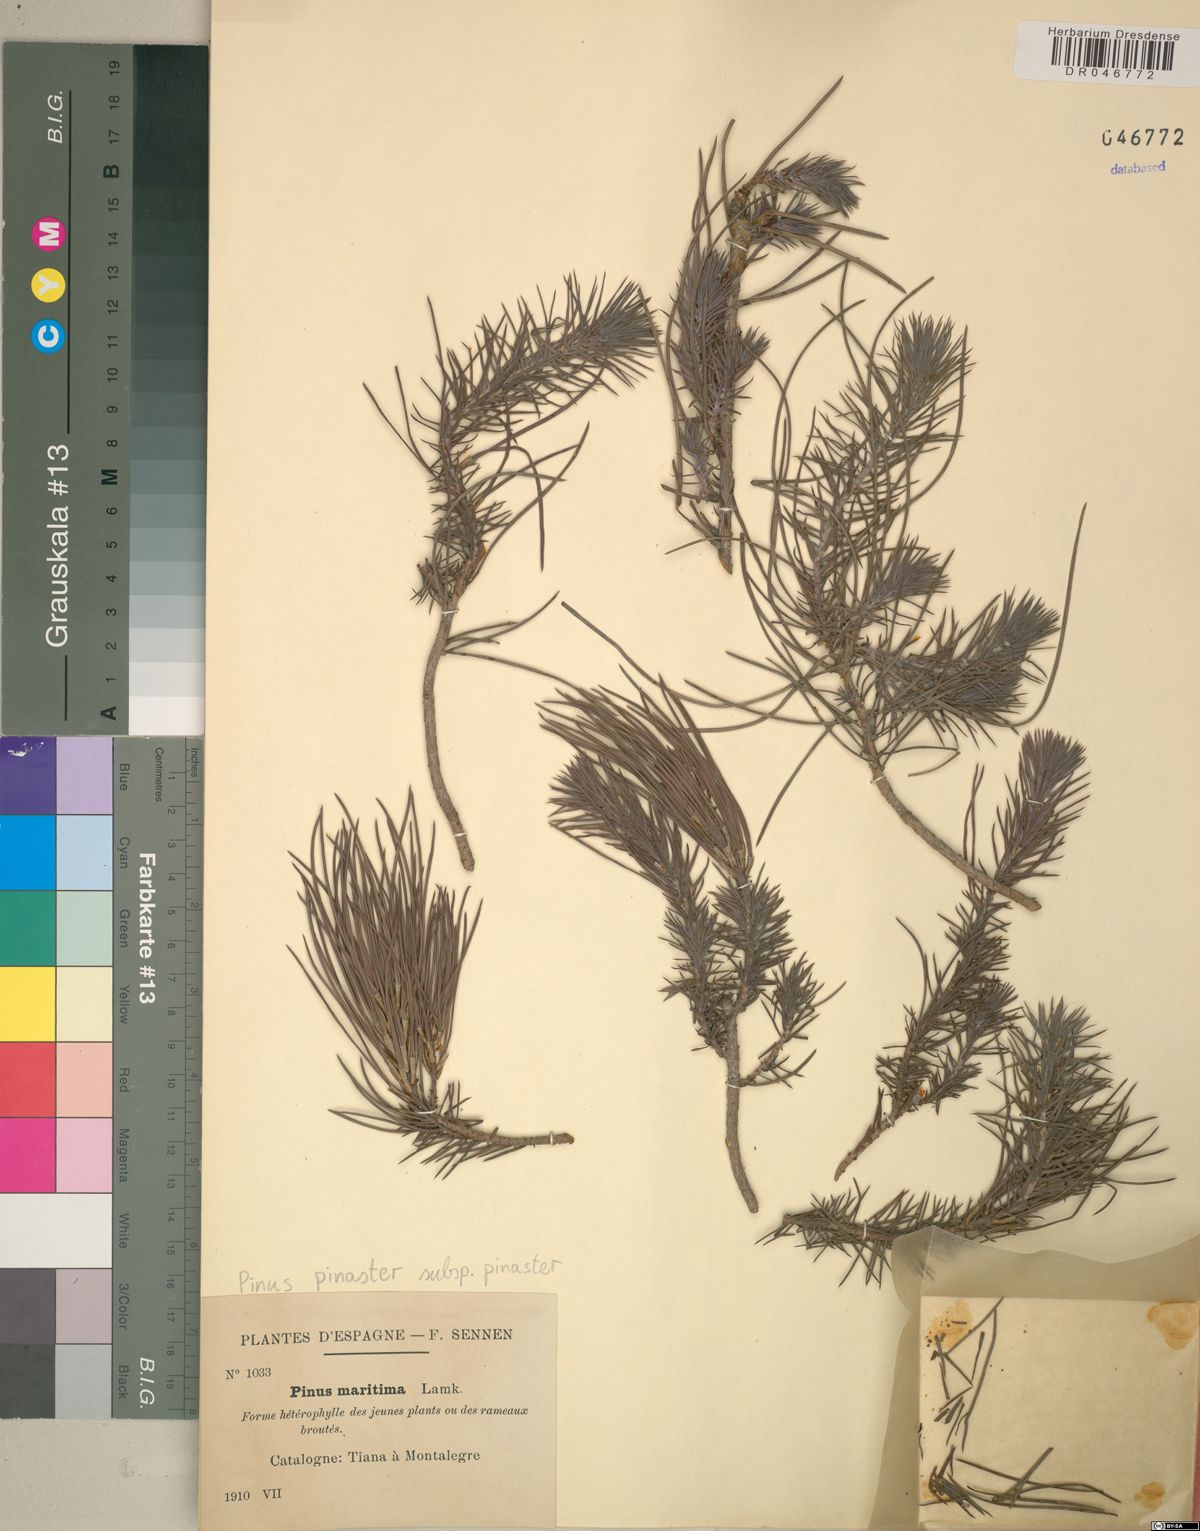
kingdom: Plantae
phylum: Tracheophyta
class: Pinopsida
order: Pinales
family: Pinaceae
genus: Pinus
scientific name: Pinus pinaster
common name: Maritime pine
